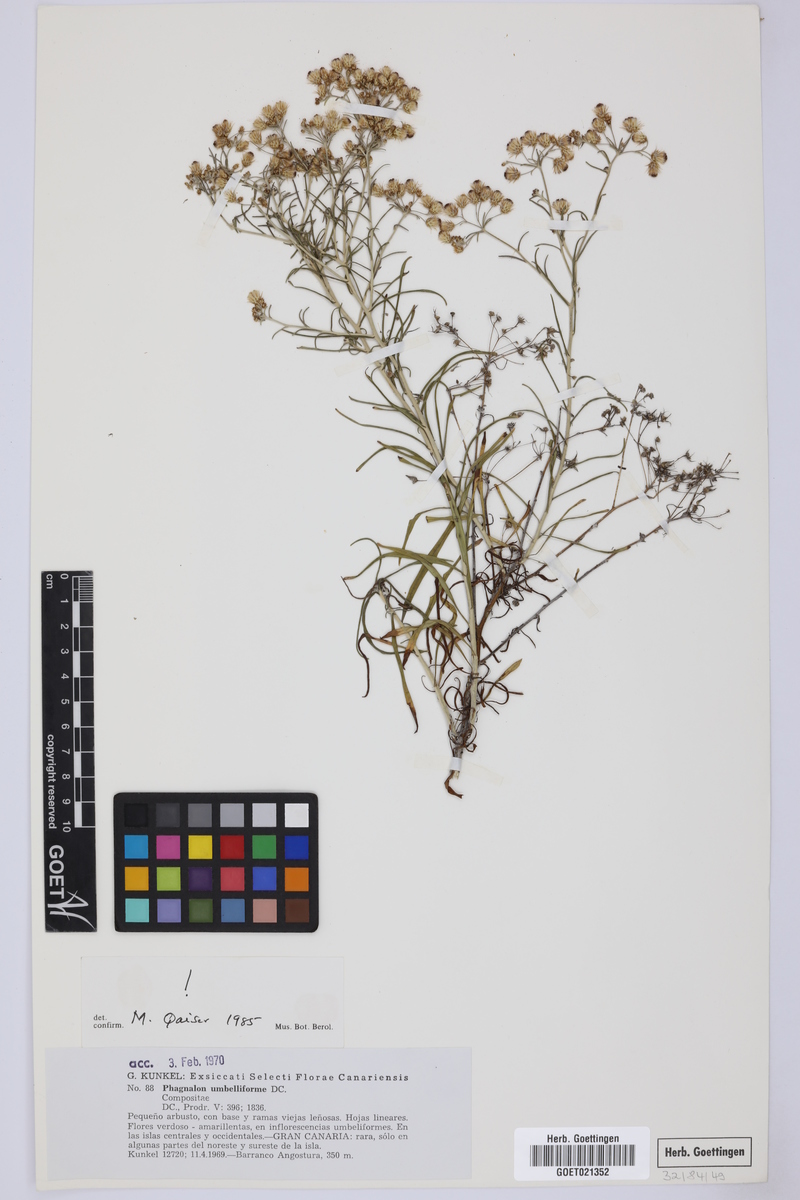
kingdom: Plantae
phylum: Tracheophyta
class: Magnoliopsida
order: Asterales
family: Asteraceae
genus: Phagnalon
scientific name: Phagnalon umbelliforme
